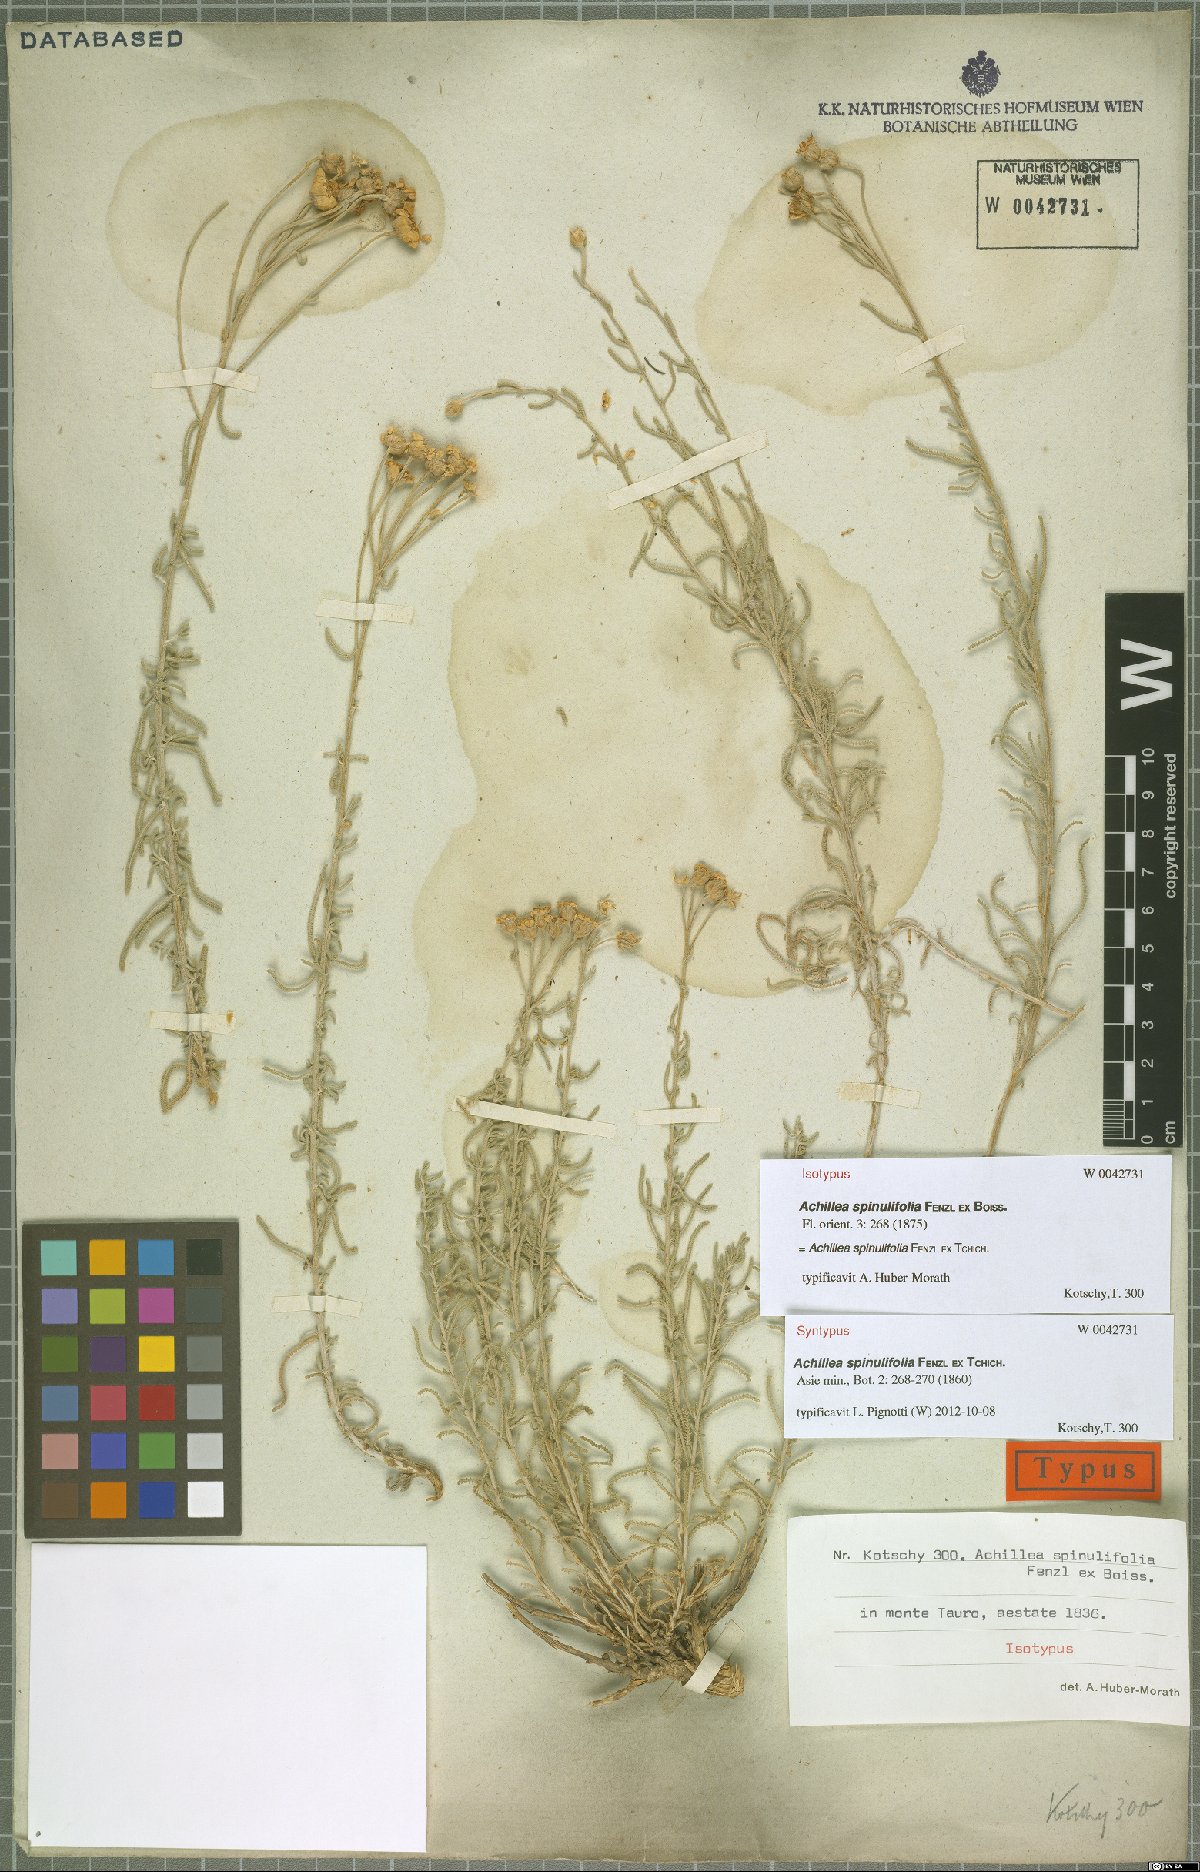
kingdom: Plantae
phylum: Tracheophyta
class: Magnoliopsida
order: Asterales
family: Asteraceae
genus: Achillea
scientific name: Achillea spinulifolia
